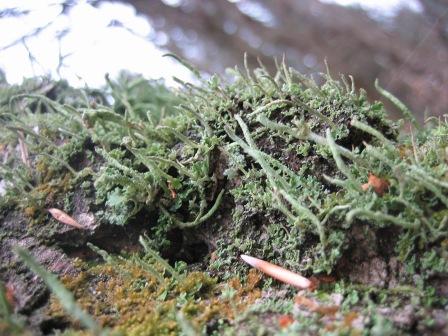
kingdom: Fungi
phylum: Ascomycota
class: Lecanoromycetes
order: Lecanorales
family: Cladoniaceae
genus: Cladonia
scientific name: Cladonia coniocraea
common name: træfods-bægerlav
